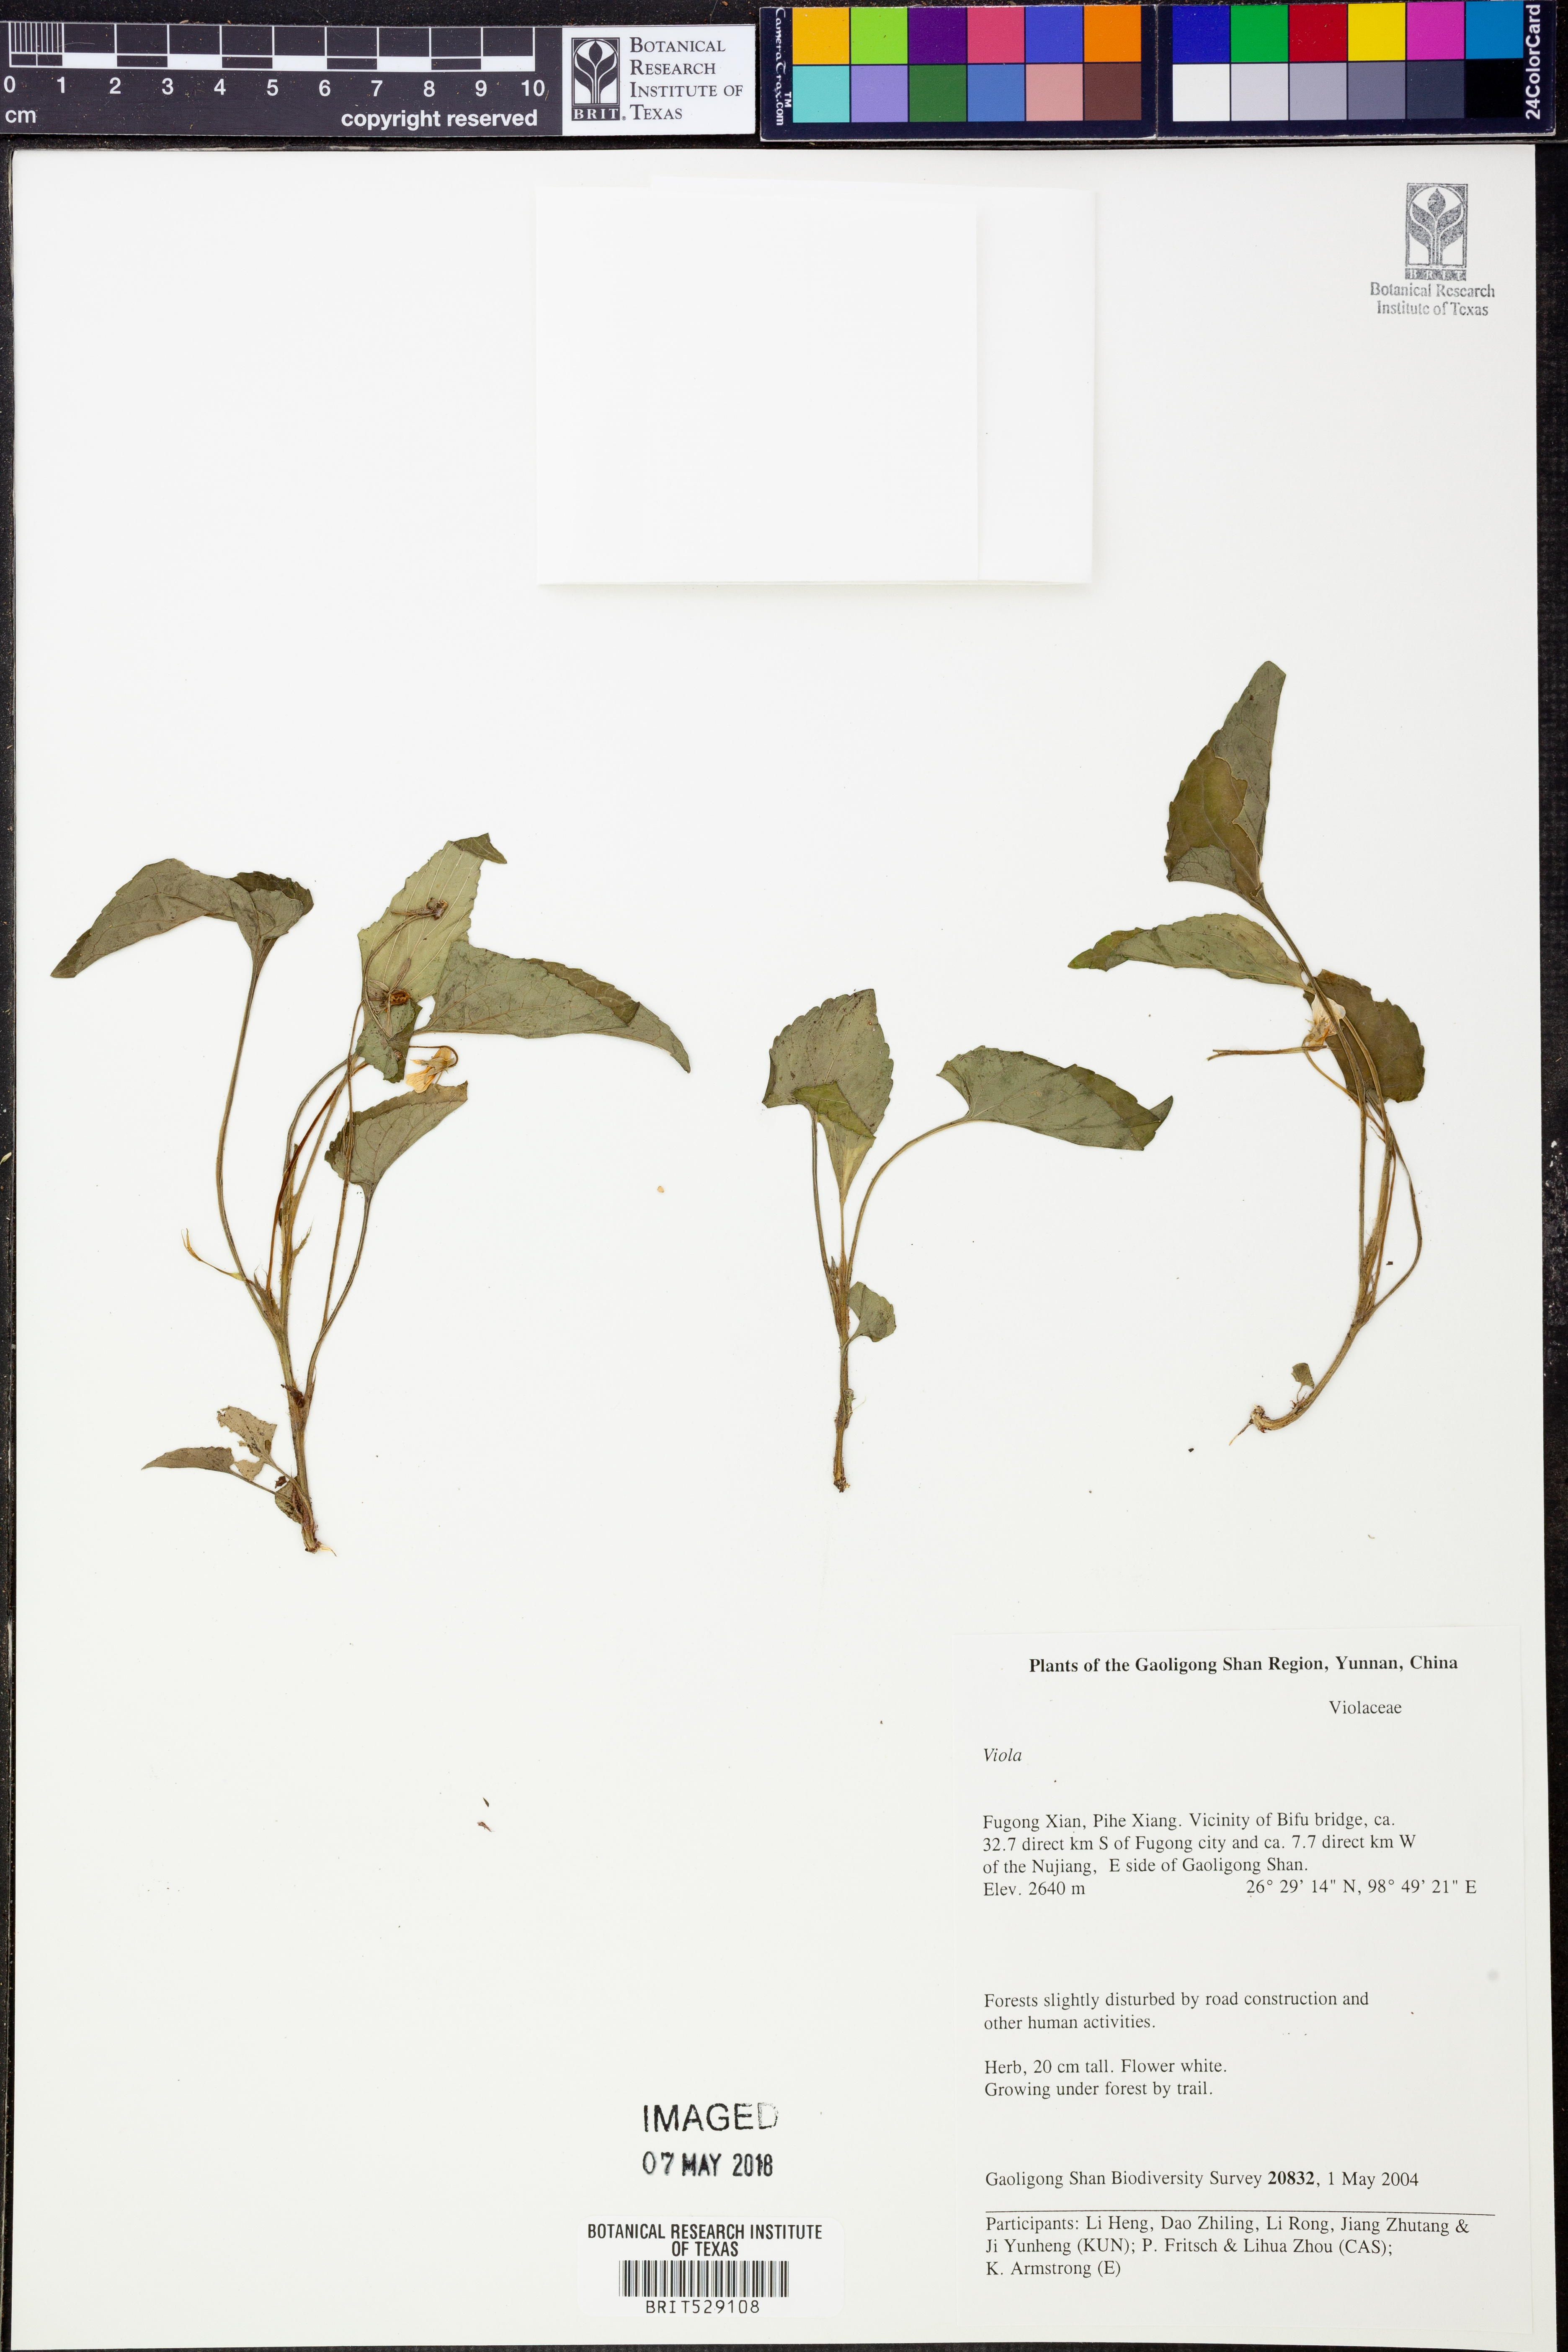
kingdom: Plantae
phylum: Tracheophyta
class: Magnoliopsida
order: Malpighiales
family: Violaceae
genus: Viola
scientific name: Viola
